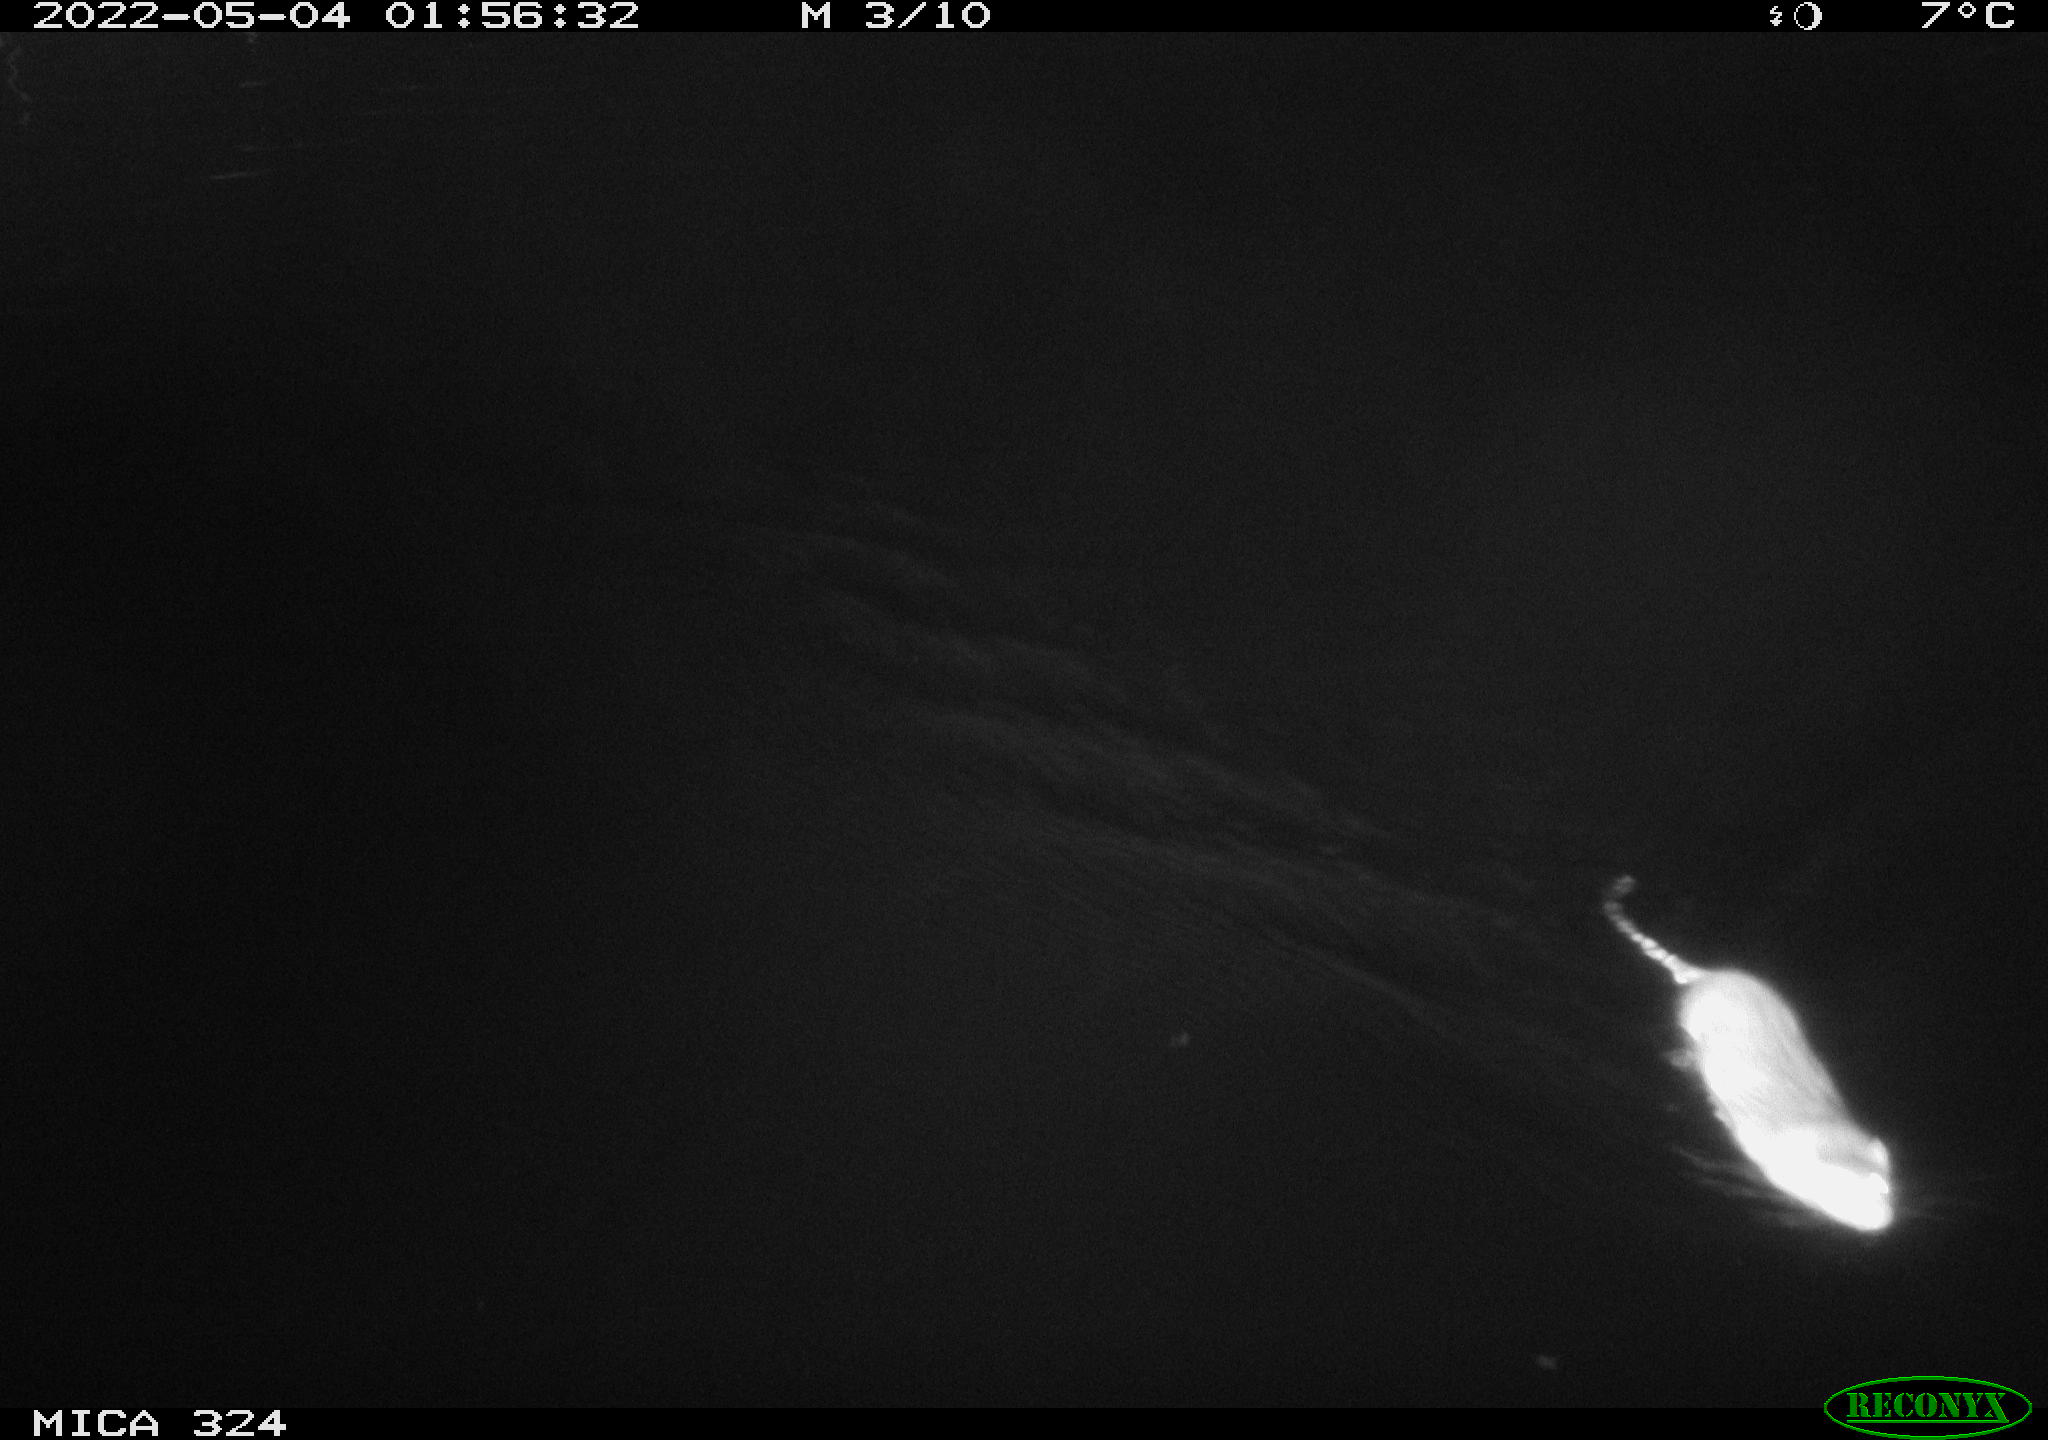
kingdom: Animalia
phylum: Chordata
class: Mammalia
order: Rodentia
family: Muridae
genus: Rattus
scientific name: Rattus norvegicus
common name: Brown rat
